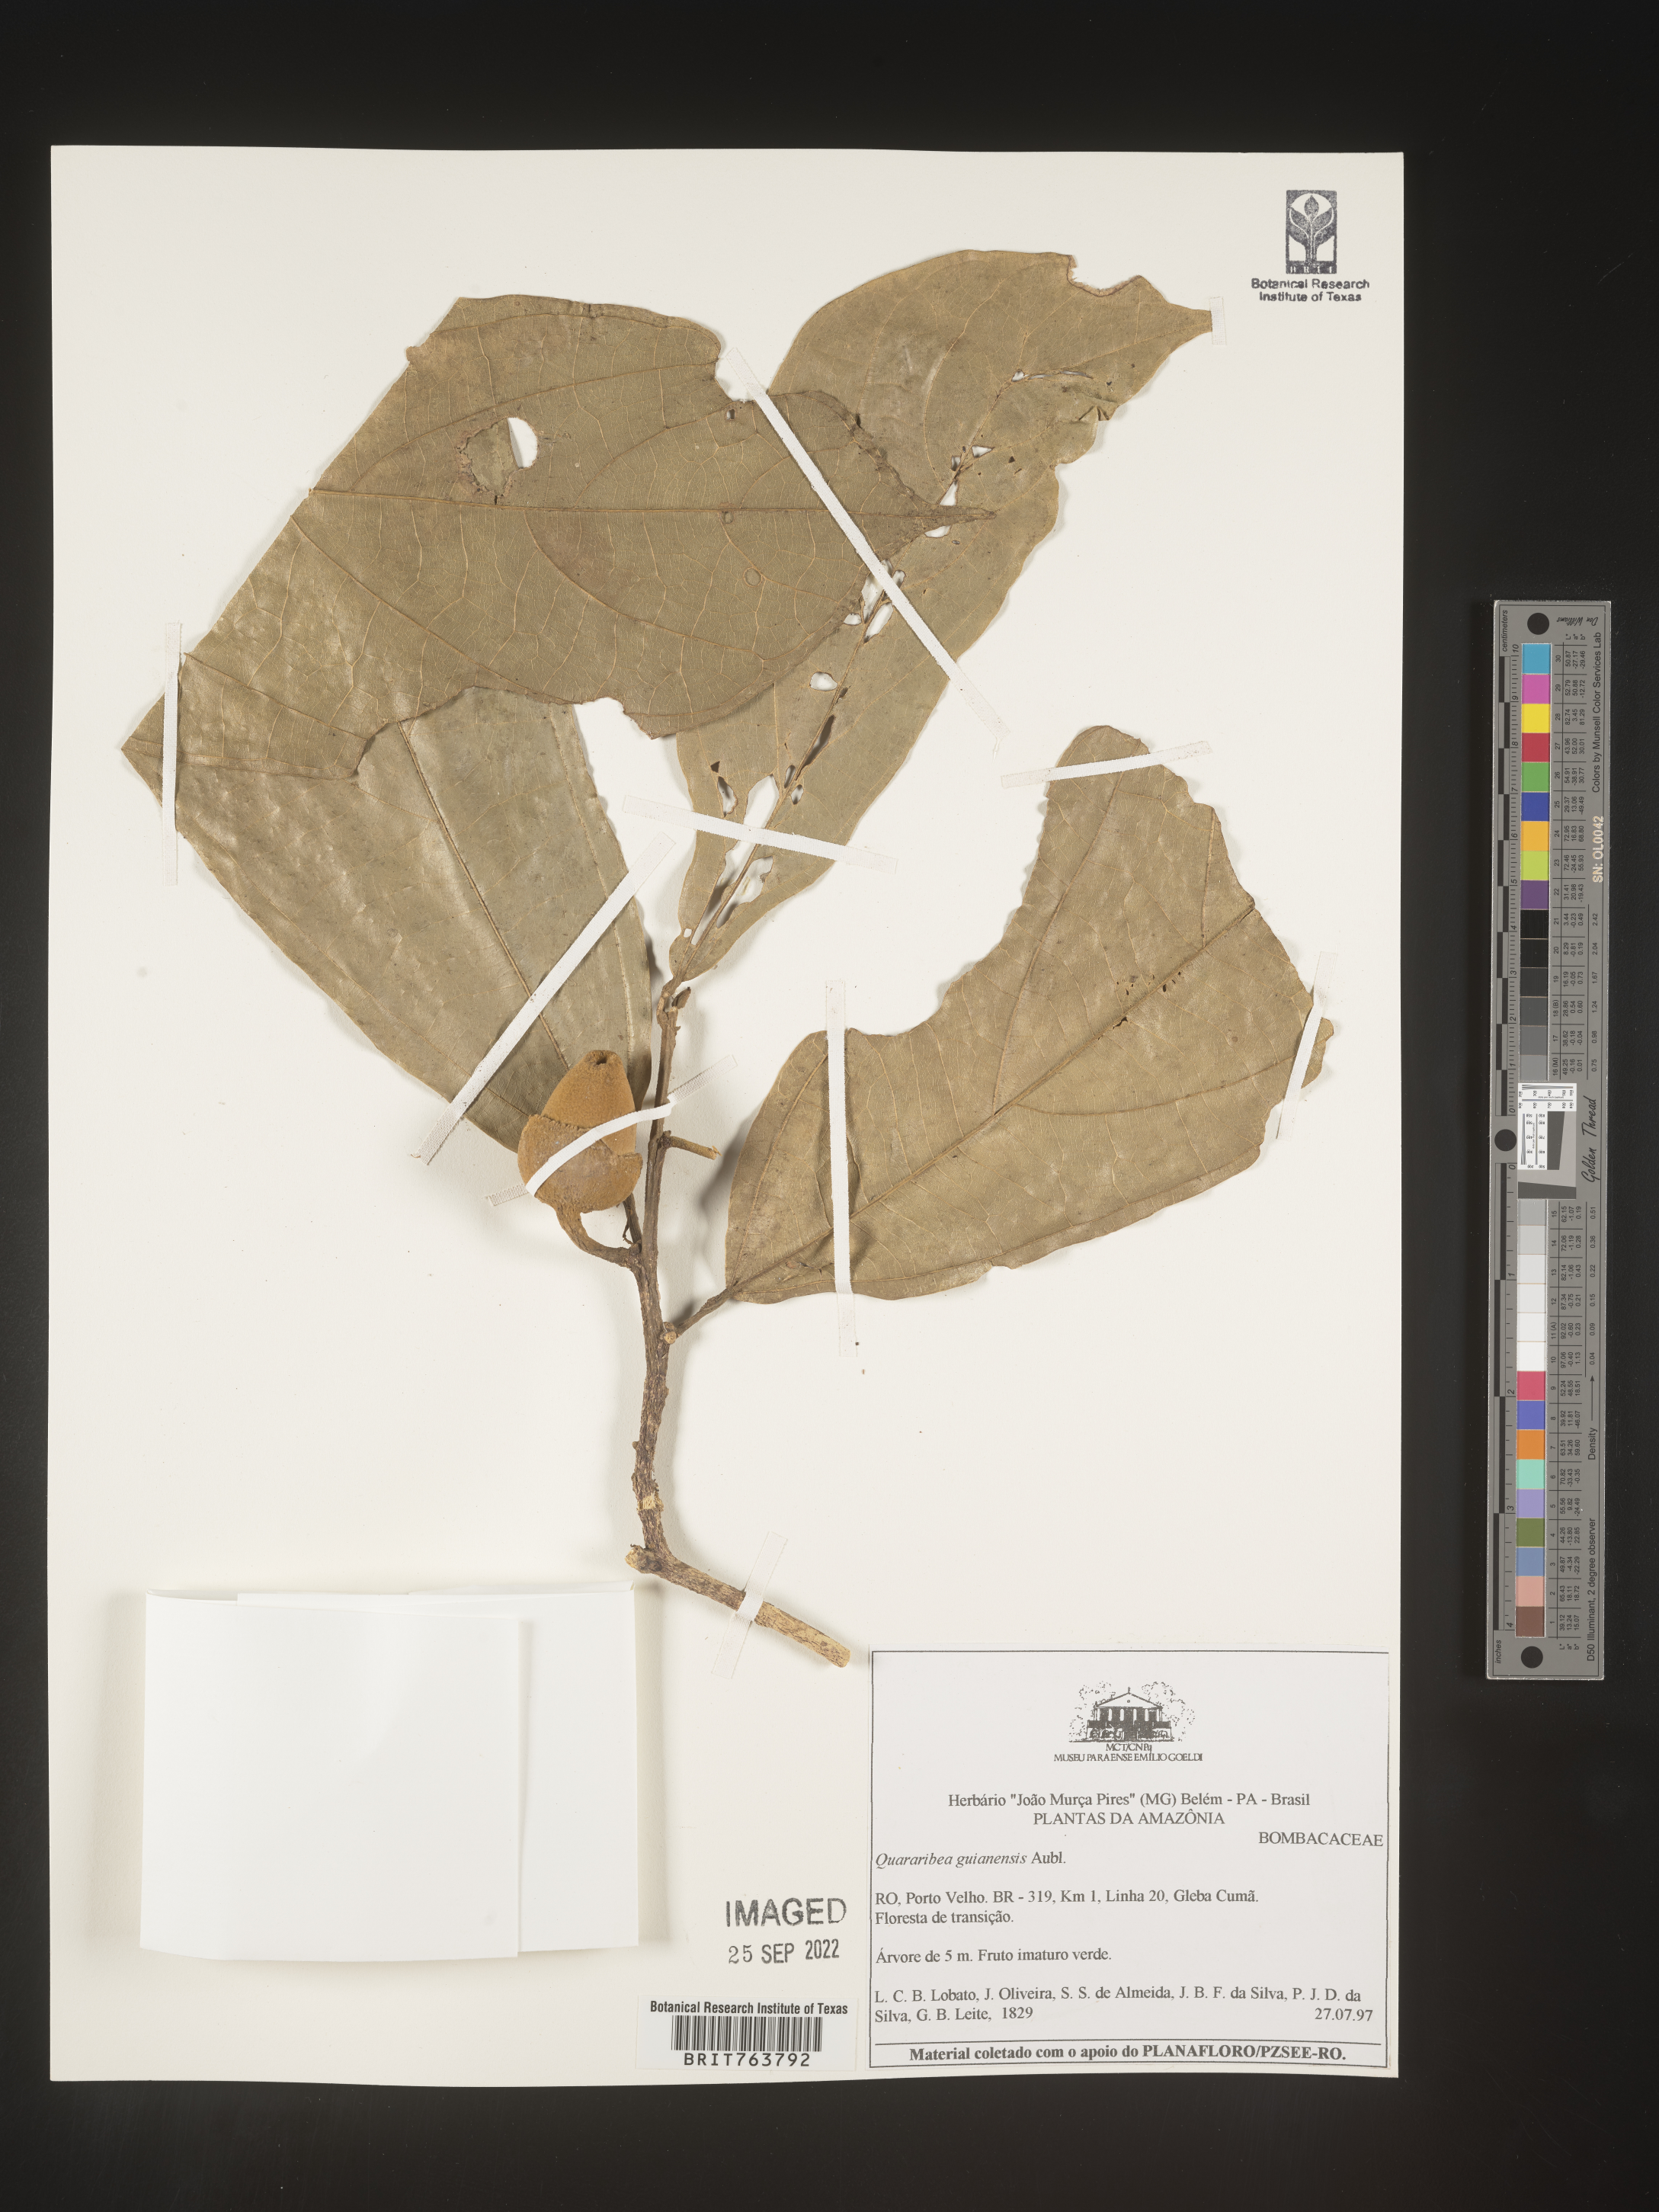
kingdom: Plantae
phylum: Tracheophyta
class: Magnoliopsida
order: Malvales
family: Malvaceae
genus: Quararibea
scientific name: Quararibea
